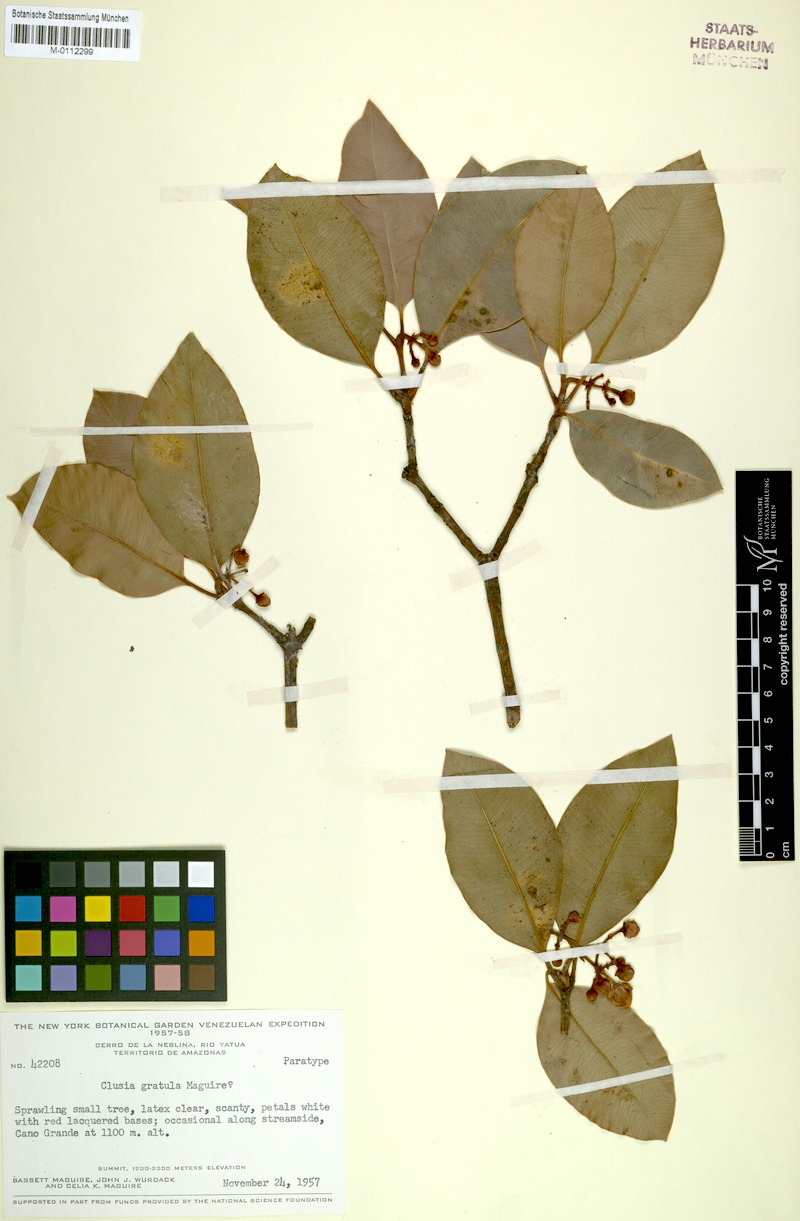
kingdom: Plantae
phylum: Tracheophyta
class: Magnoliopsida
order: Malpighiales
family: Clusiaceae
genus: Clusia
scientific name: Clusia gratula
